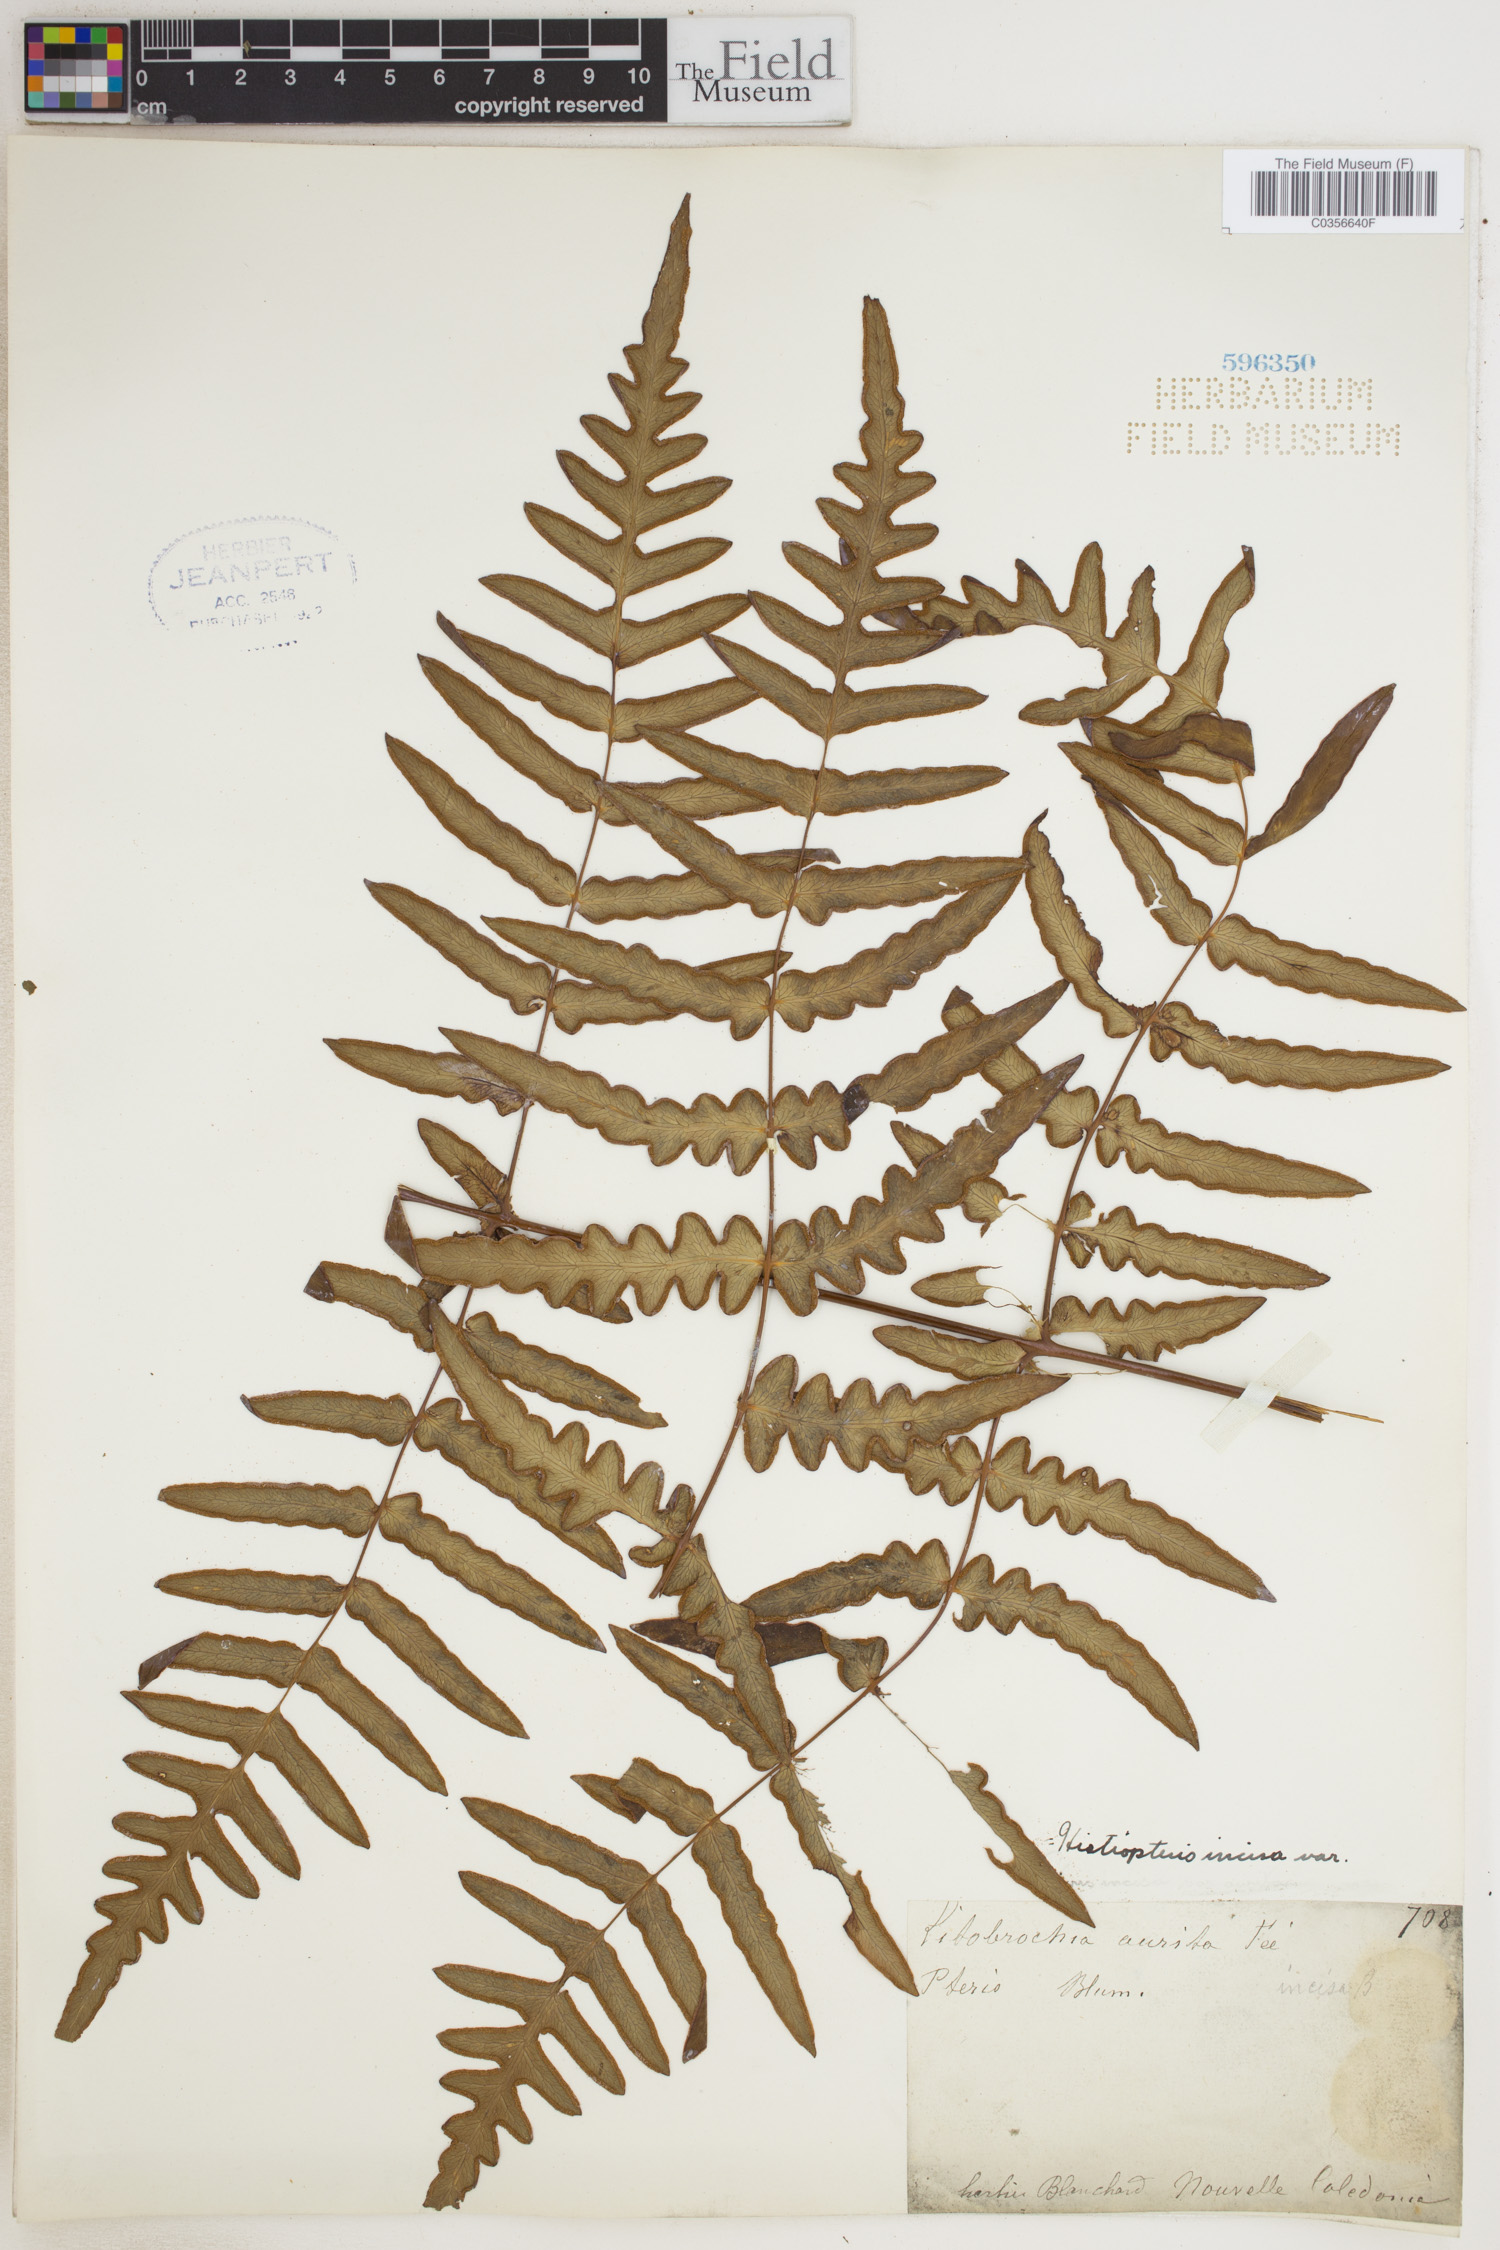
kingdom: Plantae
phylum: Tracheophyta
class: Polypodiopsida
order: Polypodiales
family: Dennstaedtiaceae
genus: Histiopteris
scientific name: Histiopteris incisa
